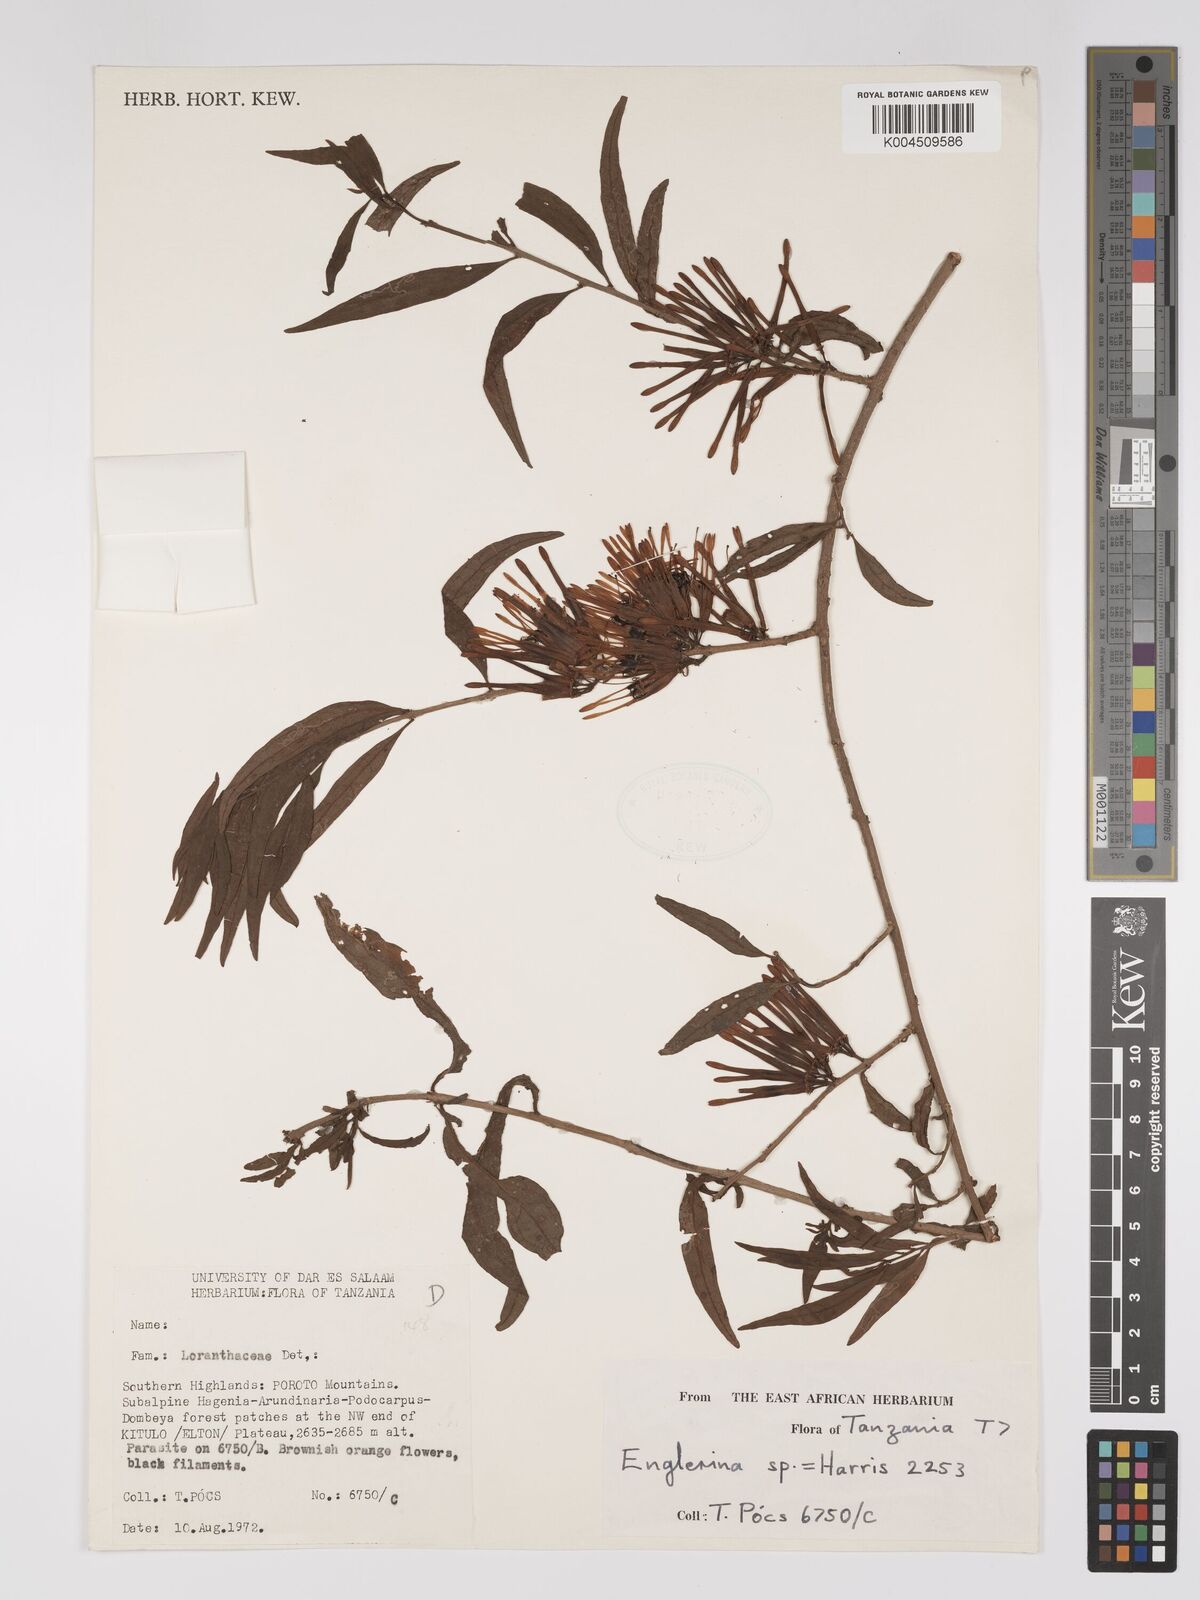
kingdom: Plantae
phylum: Tracheophyta
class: Magnoliopsida
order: Santalales
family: Loranthaceae
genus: Englerina
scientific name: Englerina inaequilatera
